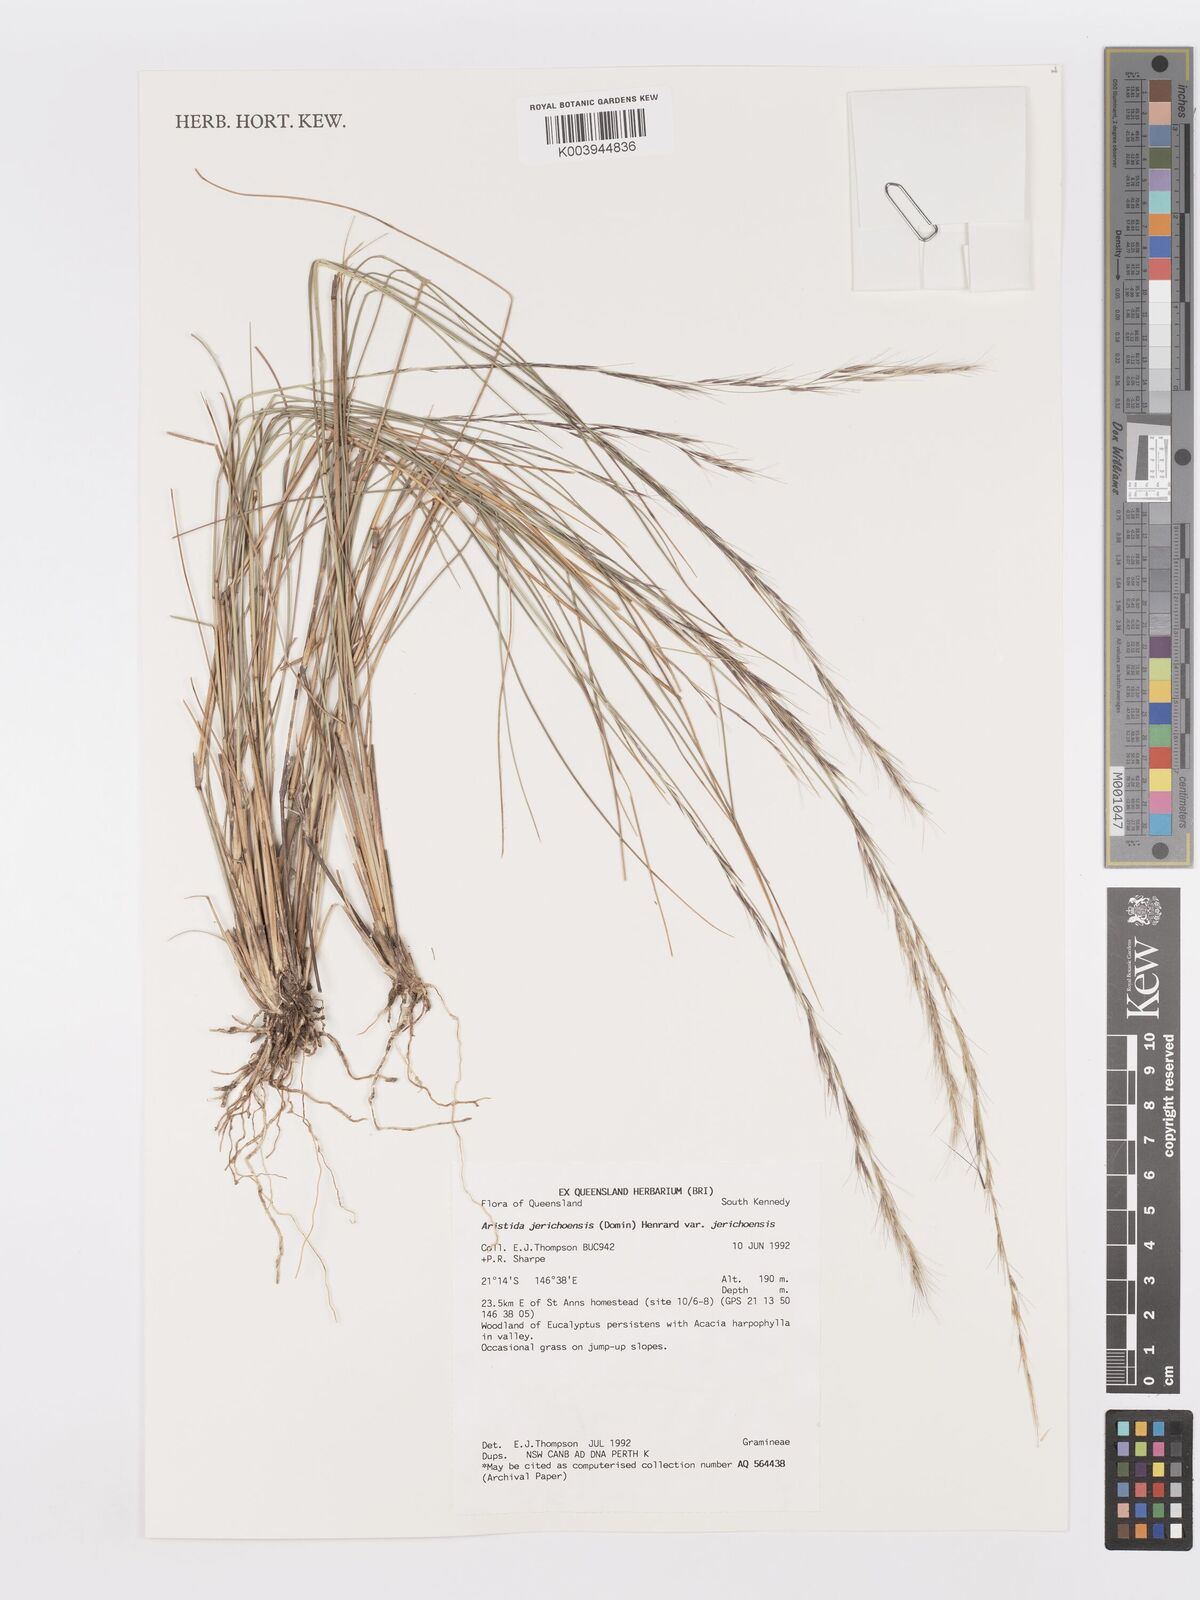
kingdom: Plantae
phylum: Tracheophyta
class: Liliopsida
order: Poales
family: Poaceae
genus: Aristida
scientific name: Aristida jerichoensis
